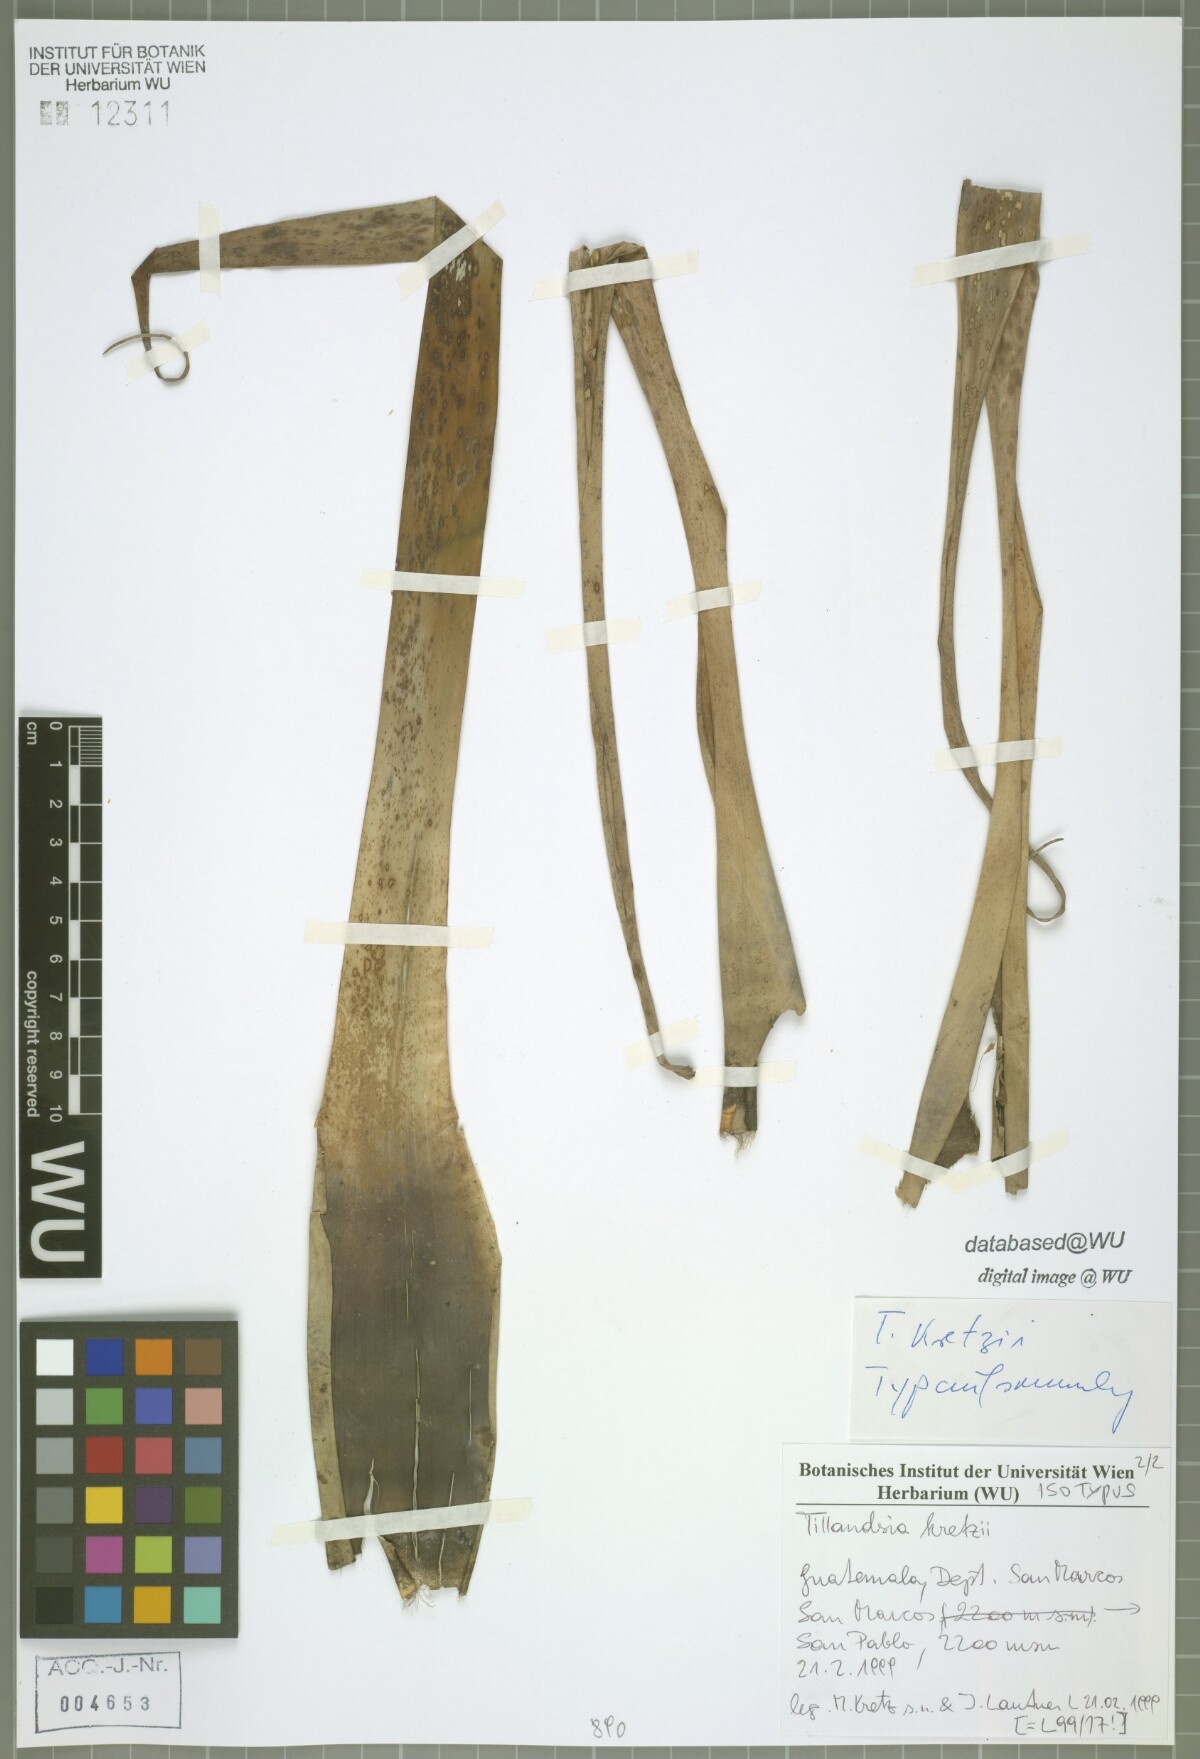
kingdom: Plantae
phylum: Tracheophyta
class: Liliopsida
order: Poales
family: Bromeliaceae
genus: Tillandsia
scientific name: Tillandsia kretzii
